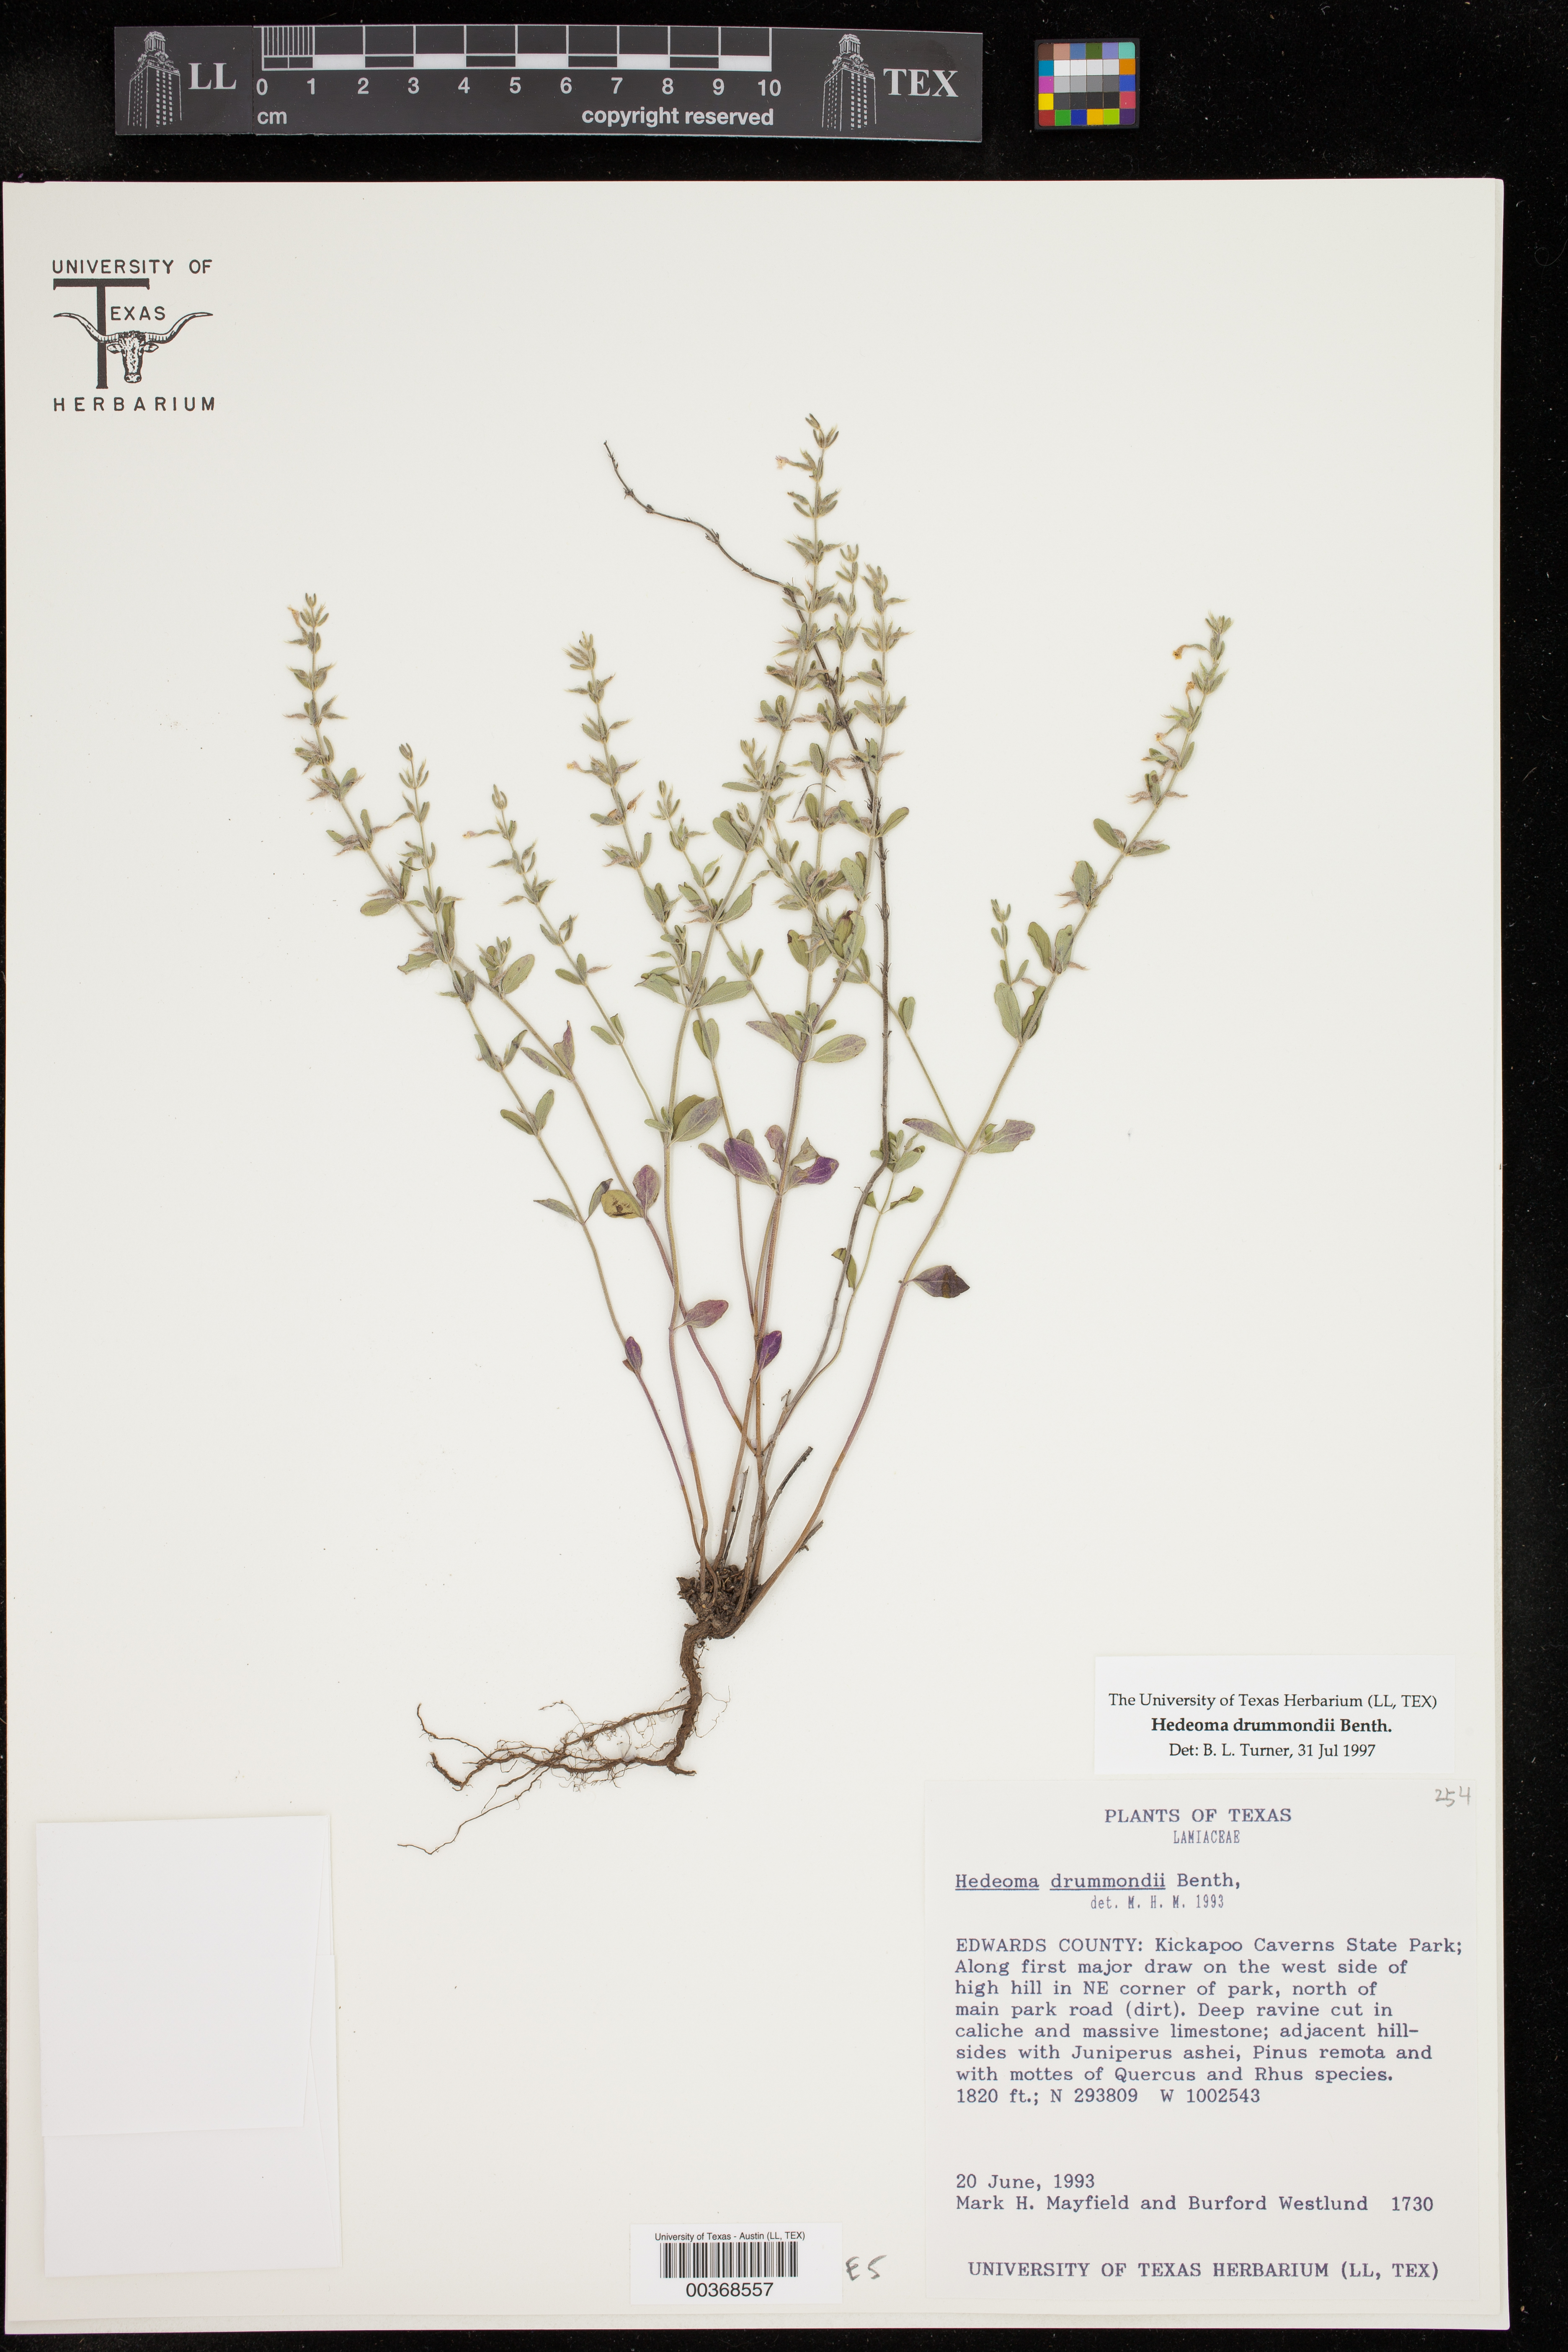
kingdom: Plantae
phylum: Tracheophyta
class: Magnoliopsida
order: Lamiales
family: Lamiaceae
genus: Hedeoma
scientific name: Hedeoma drummondii
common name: New mexico pennyroyal
